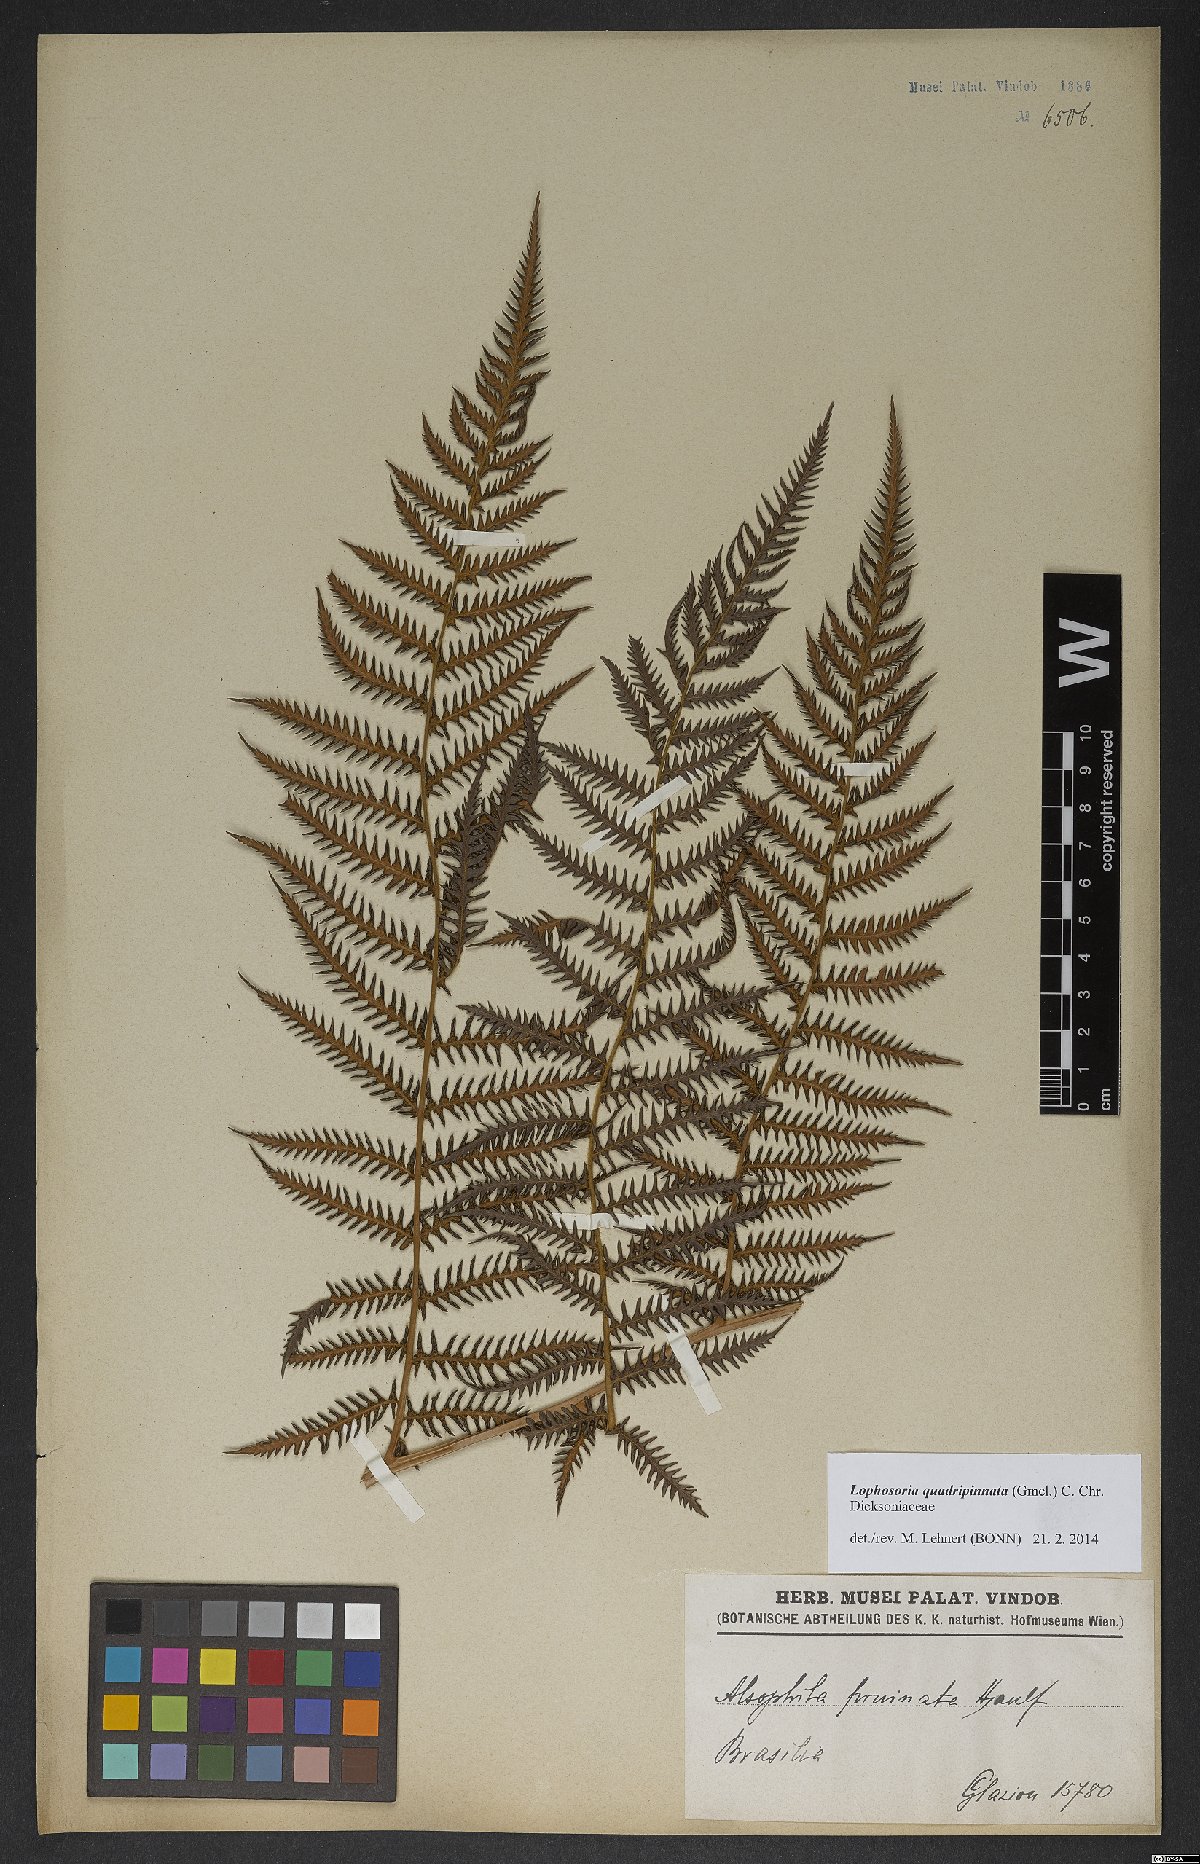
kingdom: Plantae
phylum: Tracheophyta
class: Polypodiopsida
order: Cyatheales
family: Dicksoniaceae
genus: Lophosoria
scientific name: Lophosoria quadripinnata
